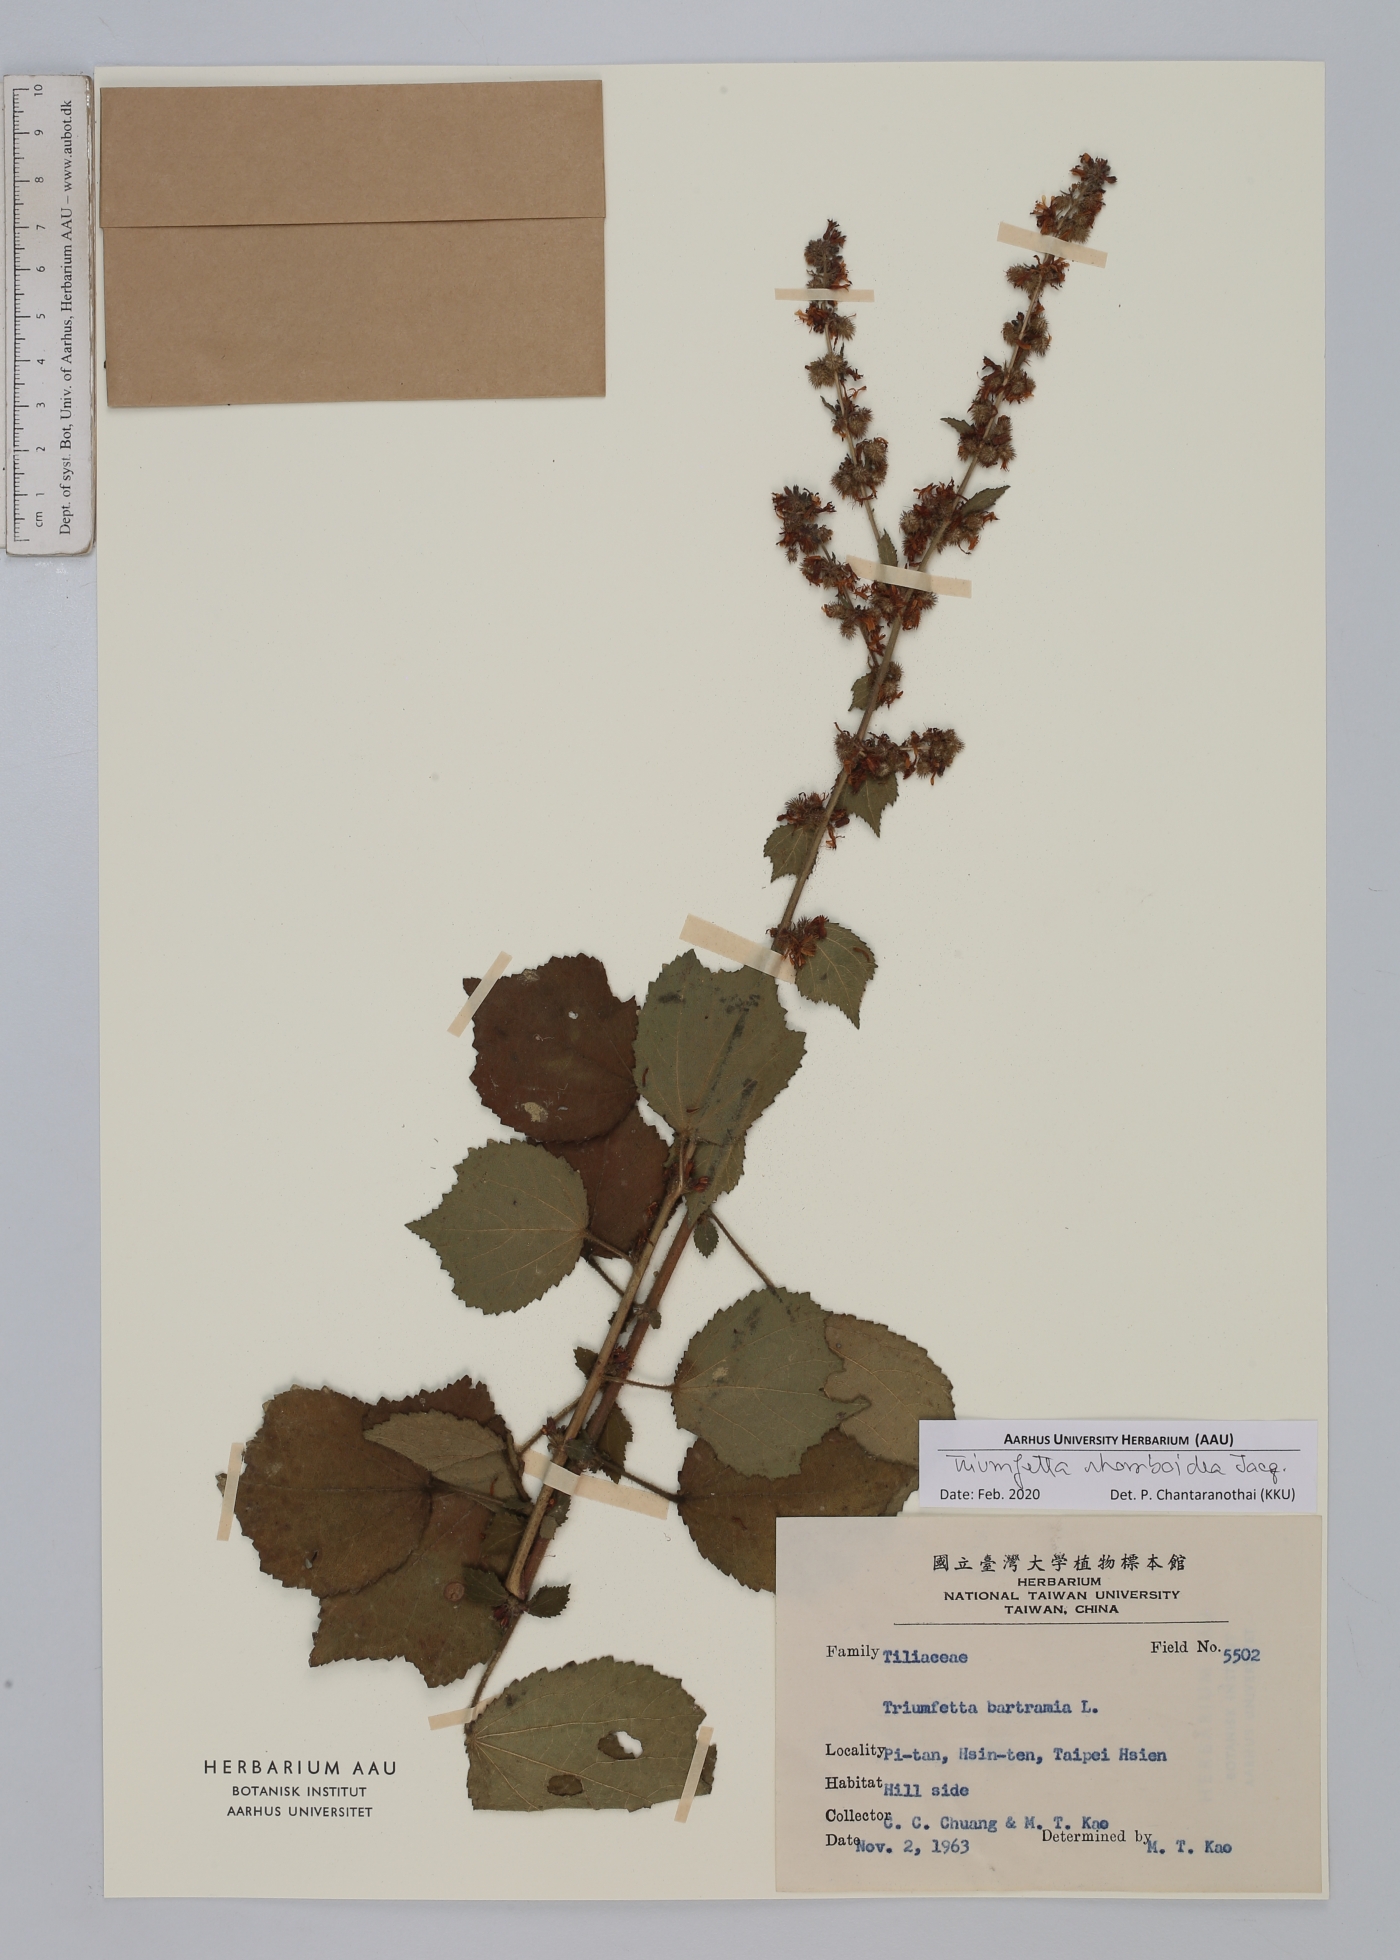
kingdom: Plantae
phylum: Tracheophyta
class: Magnoliopsida
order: Malvales
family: Malvaceae
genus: Triumfetta
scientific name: Triumfetta rhomboidea
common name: Diamond burbark
